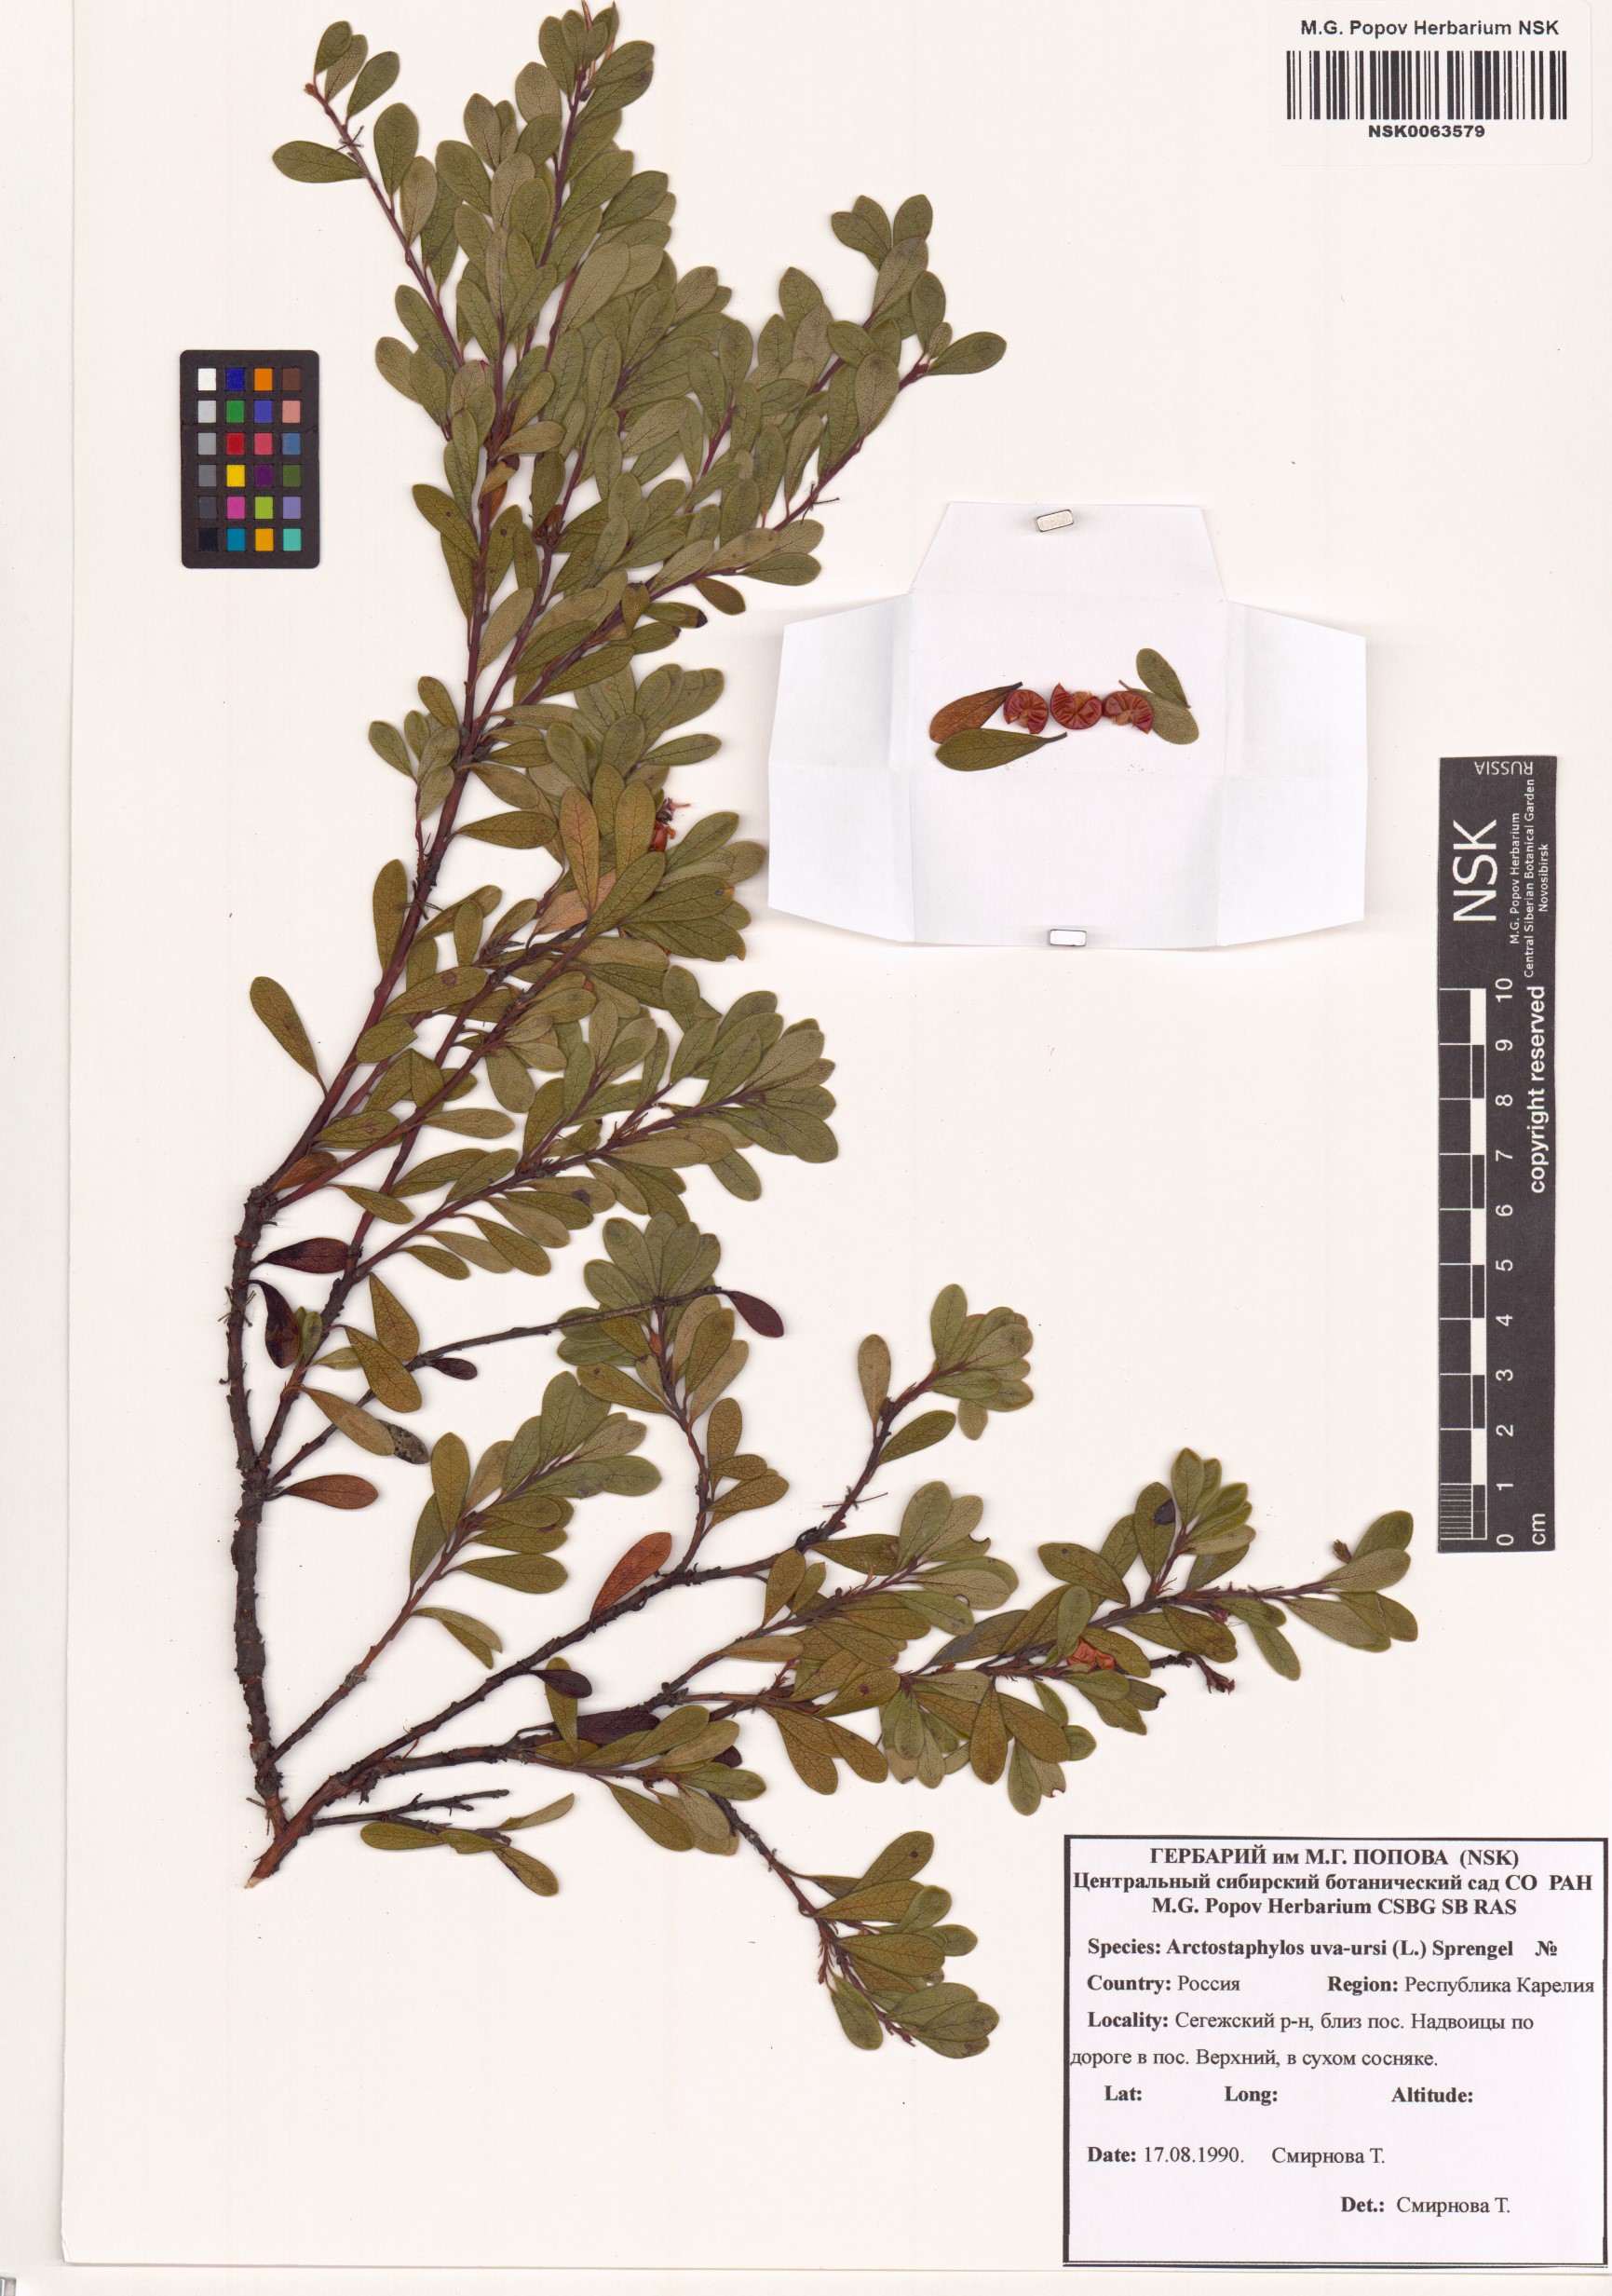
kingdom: Plantae
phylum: Tracheophyta
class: Magnoliopsida
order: Ericales
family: Ericaceae
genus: Arctostaphylos
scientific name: Arctostaphylos uva-ursi
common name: Bearberry
